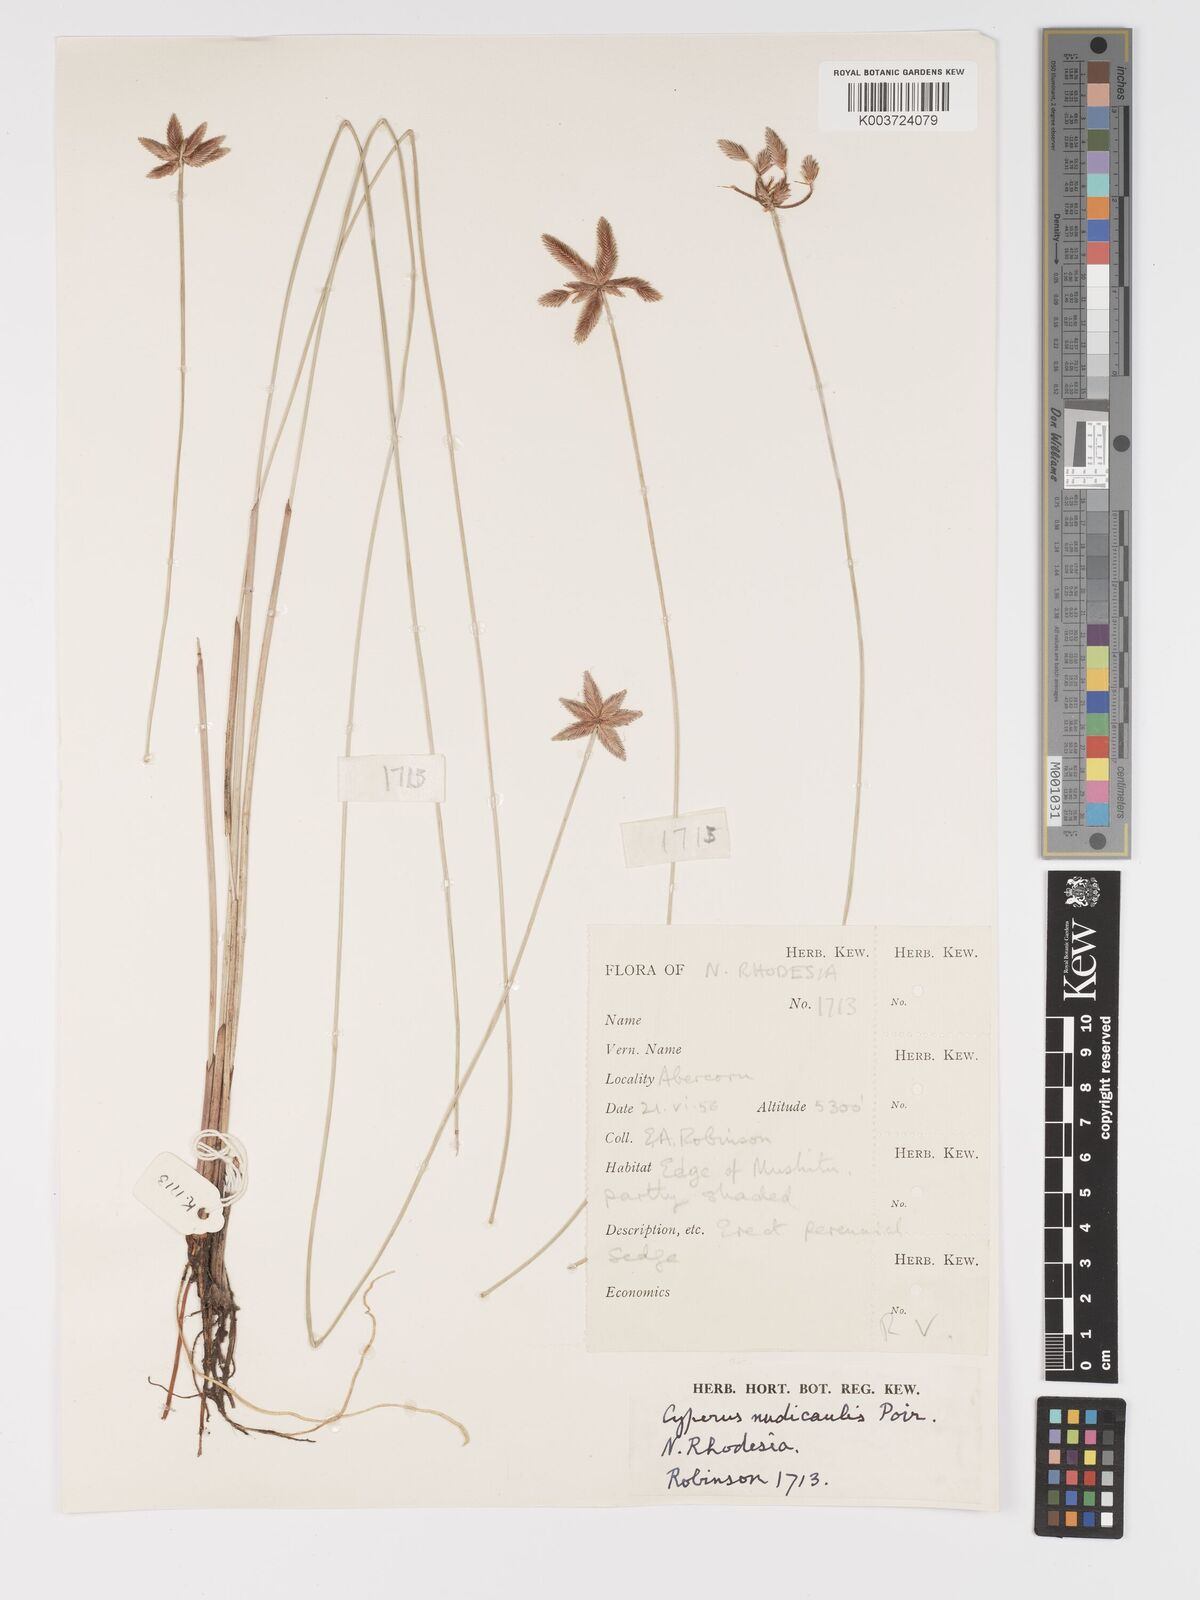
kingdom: Plantae
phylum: Tracheophyta
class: Liliopsida
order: Poales
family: Cyperaceae
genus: Cyperus
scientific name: Cyperus compressus
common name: Poorland flatsedge
